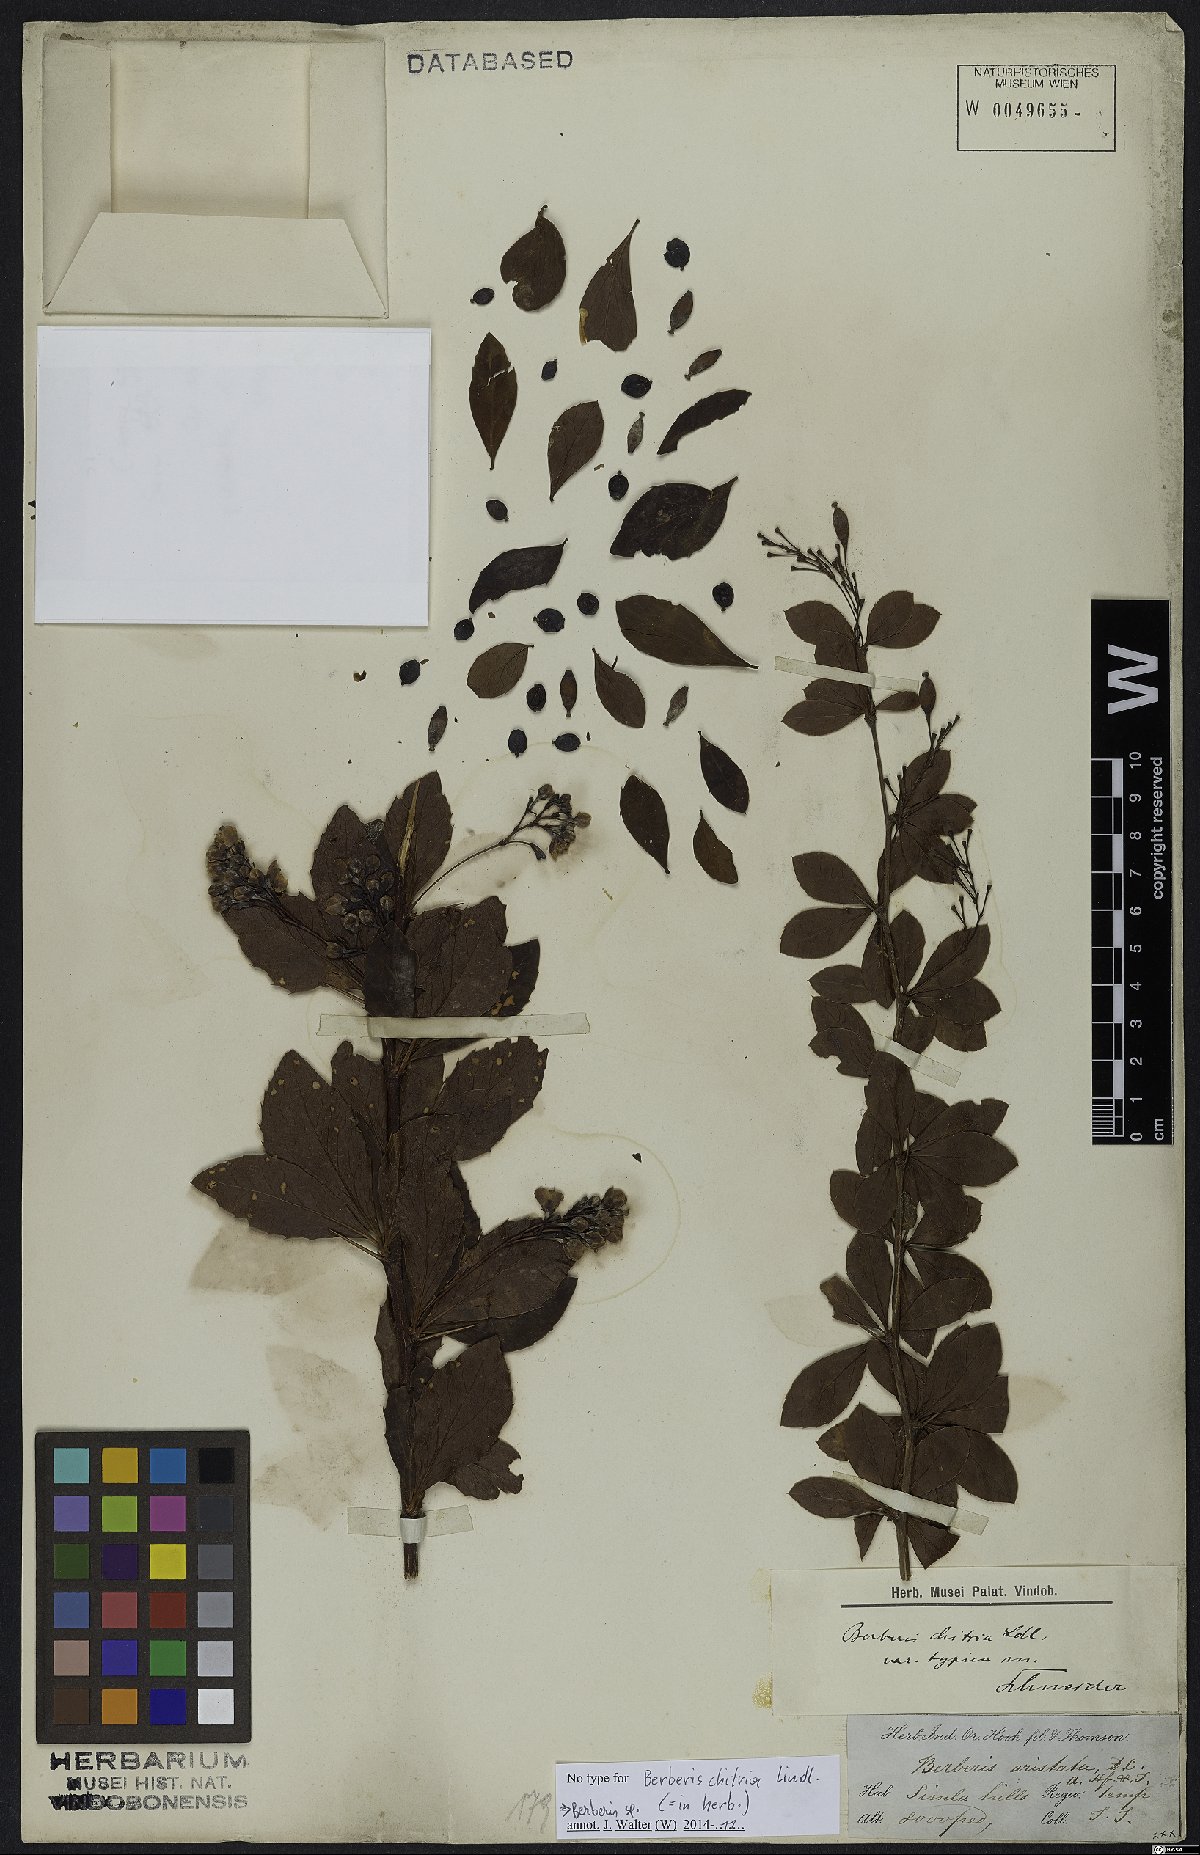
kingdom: Plantae
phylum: Tracheophyta
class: Magnoliopsida
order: Ranunculales
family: Berberidaceae
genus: Berberis
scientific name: Berberis
